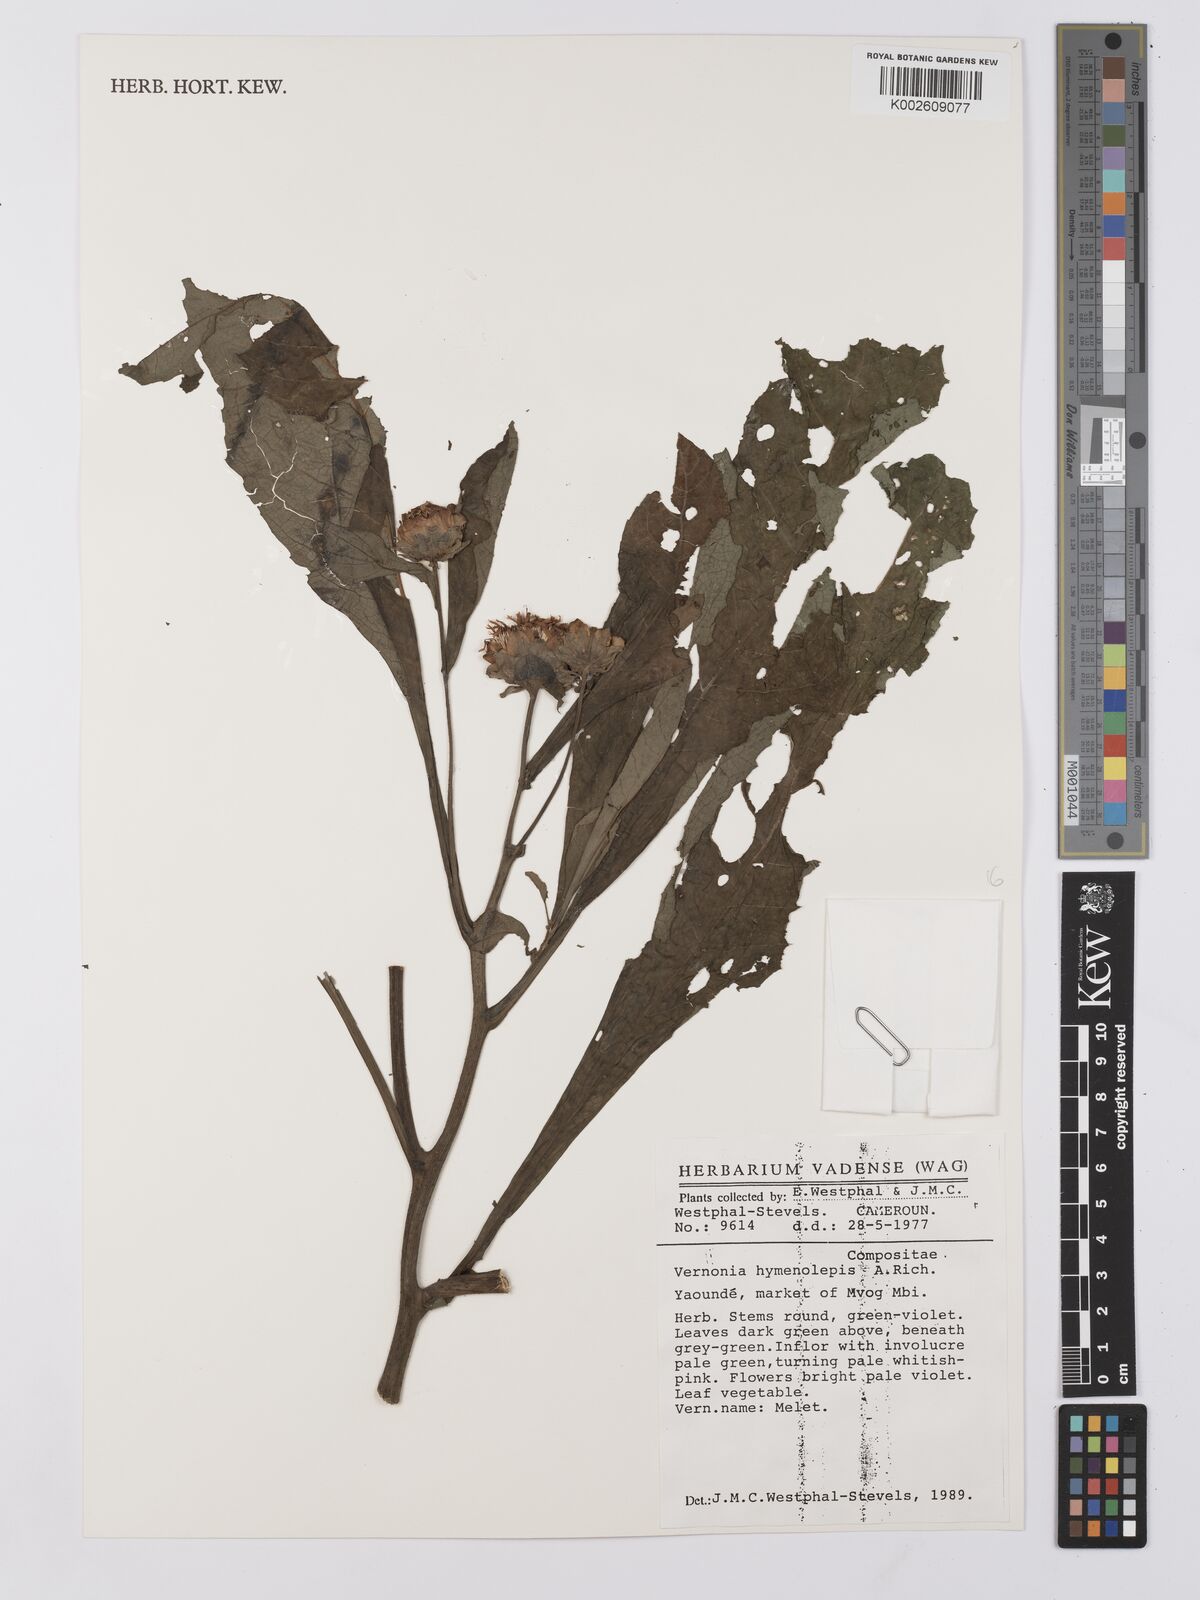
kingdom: Plantae
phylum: Tracheophyta
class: Magnoliopsida
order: Asterales
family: Asteraceae
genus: Baccharoides
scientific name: Baccharoides hymenolepis
